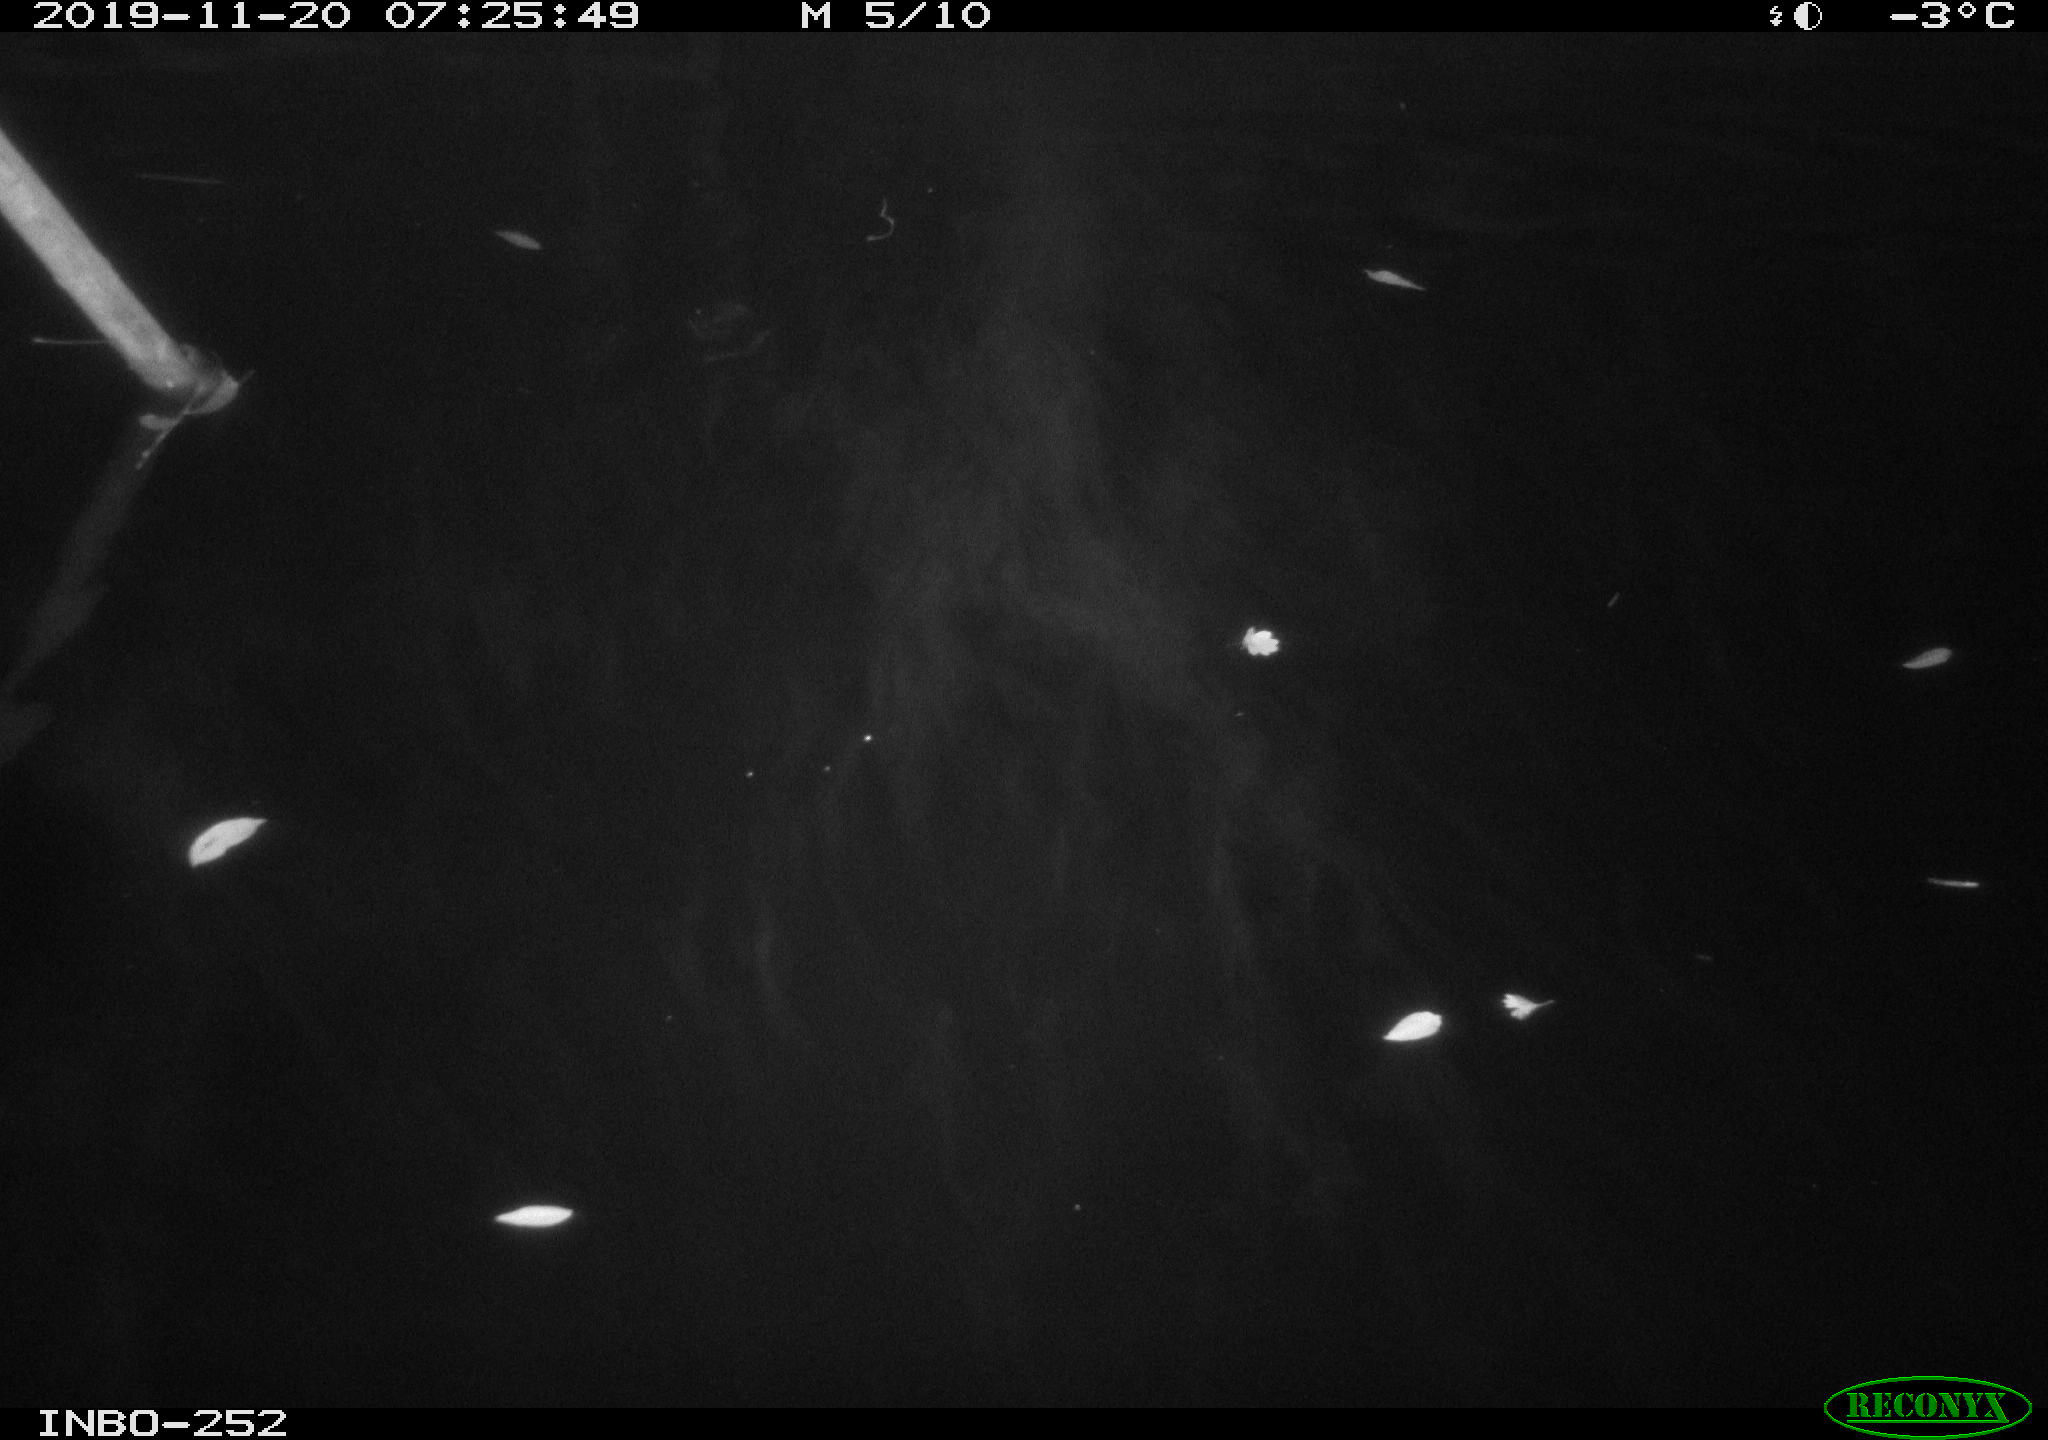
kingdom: Animalia
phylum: Chordata
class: Aves
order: Anseriformes
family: Anatidae
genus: Anas
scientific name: Anas platyrhynchos
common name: Mallard
